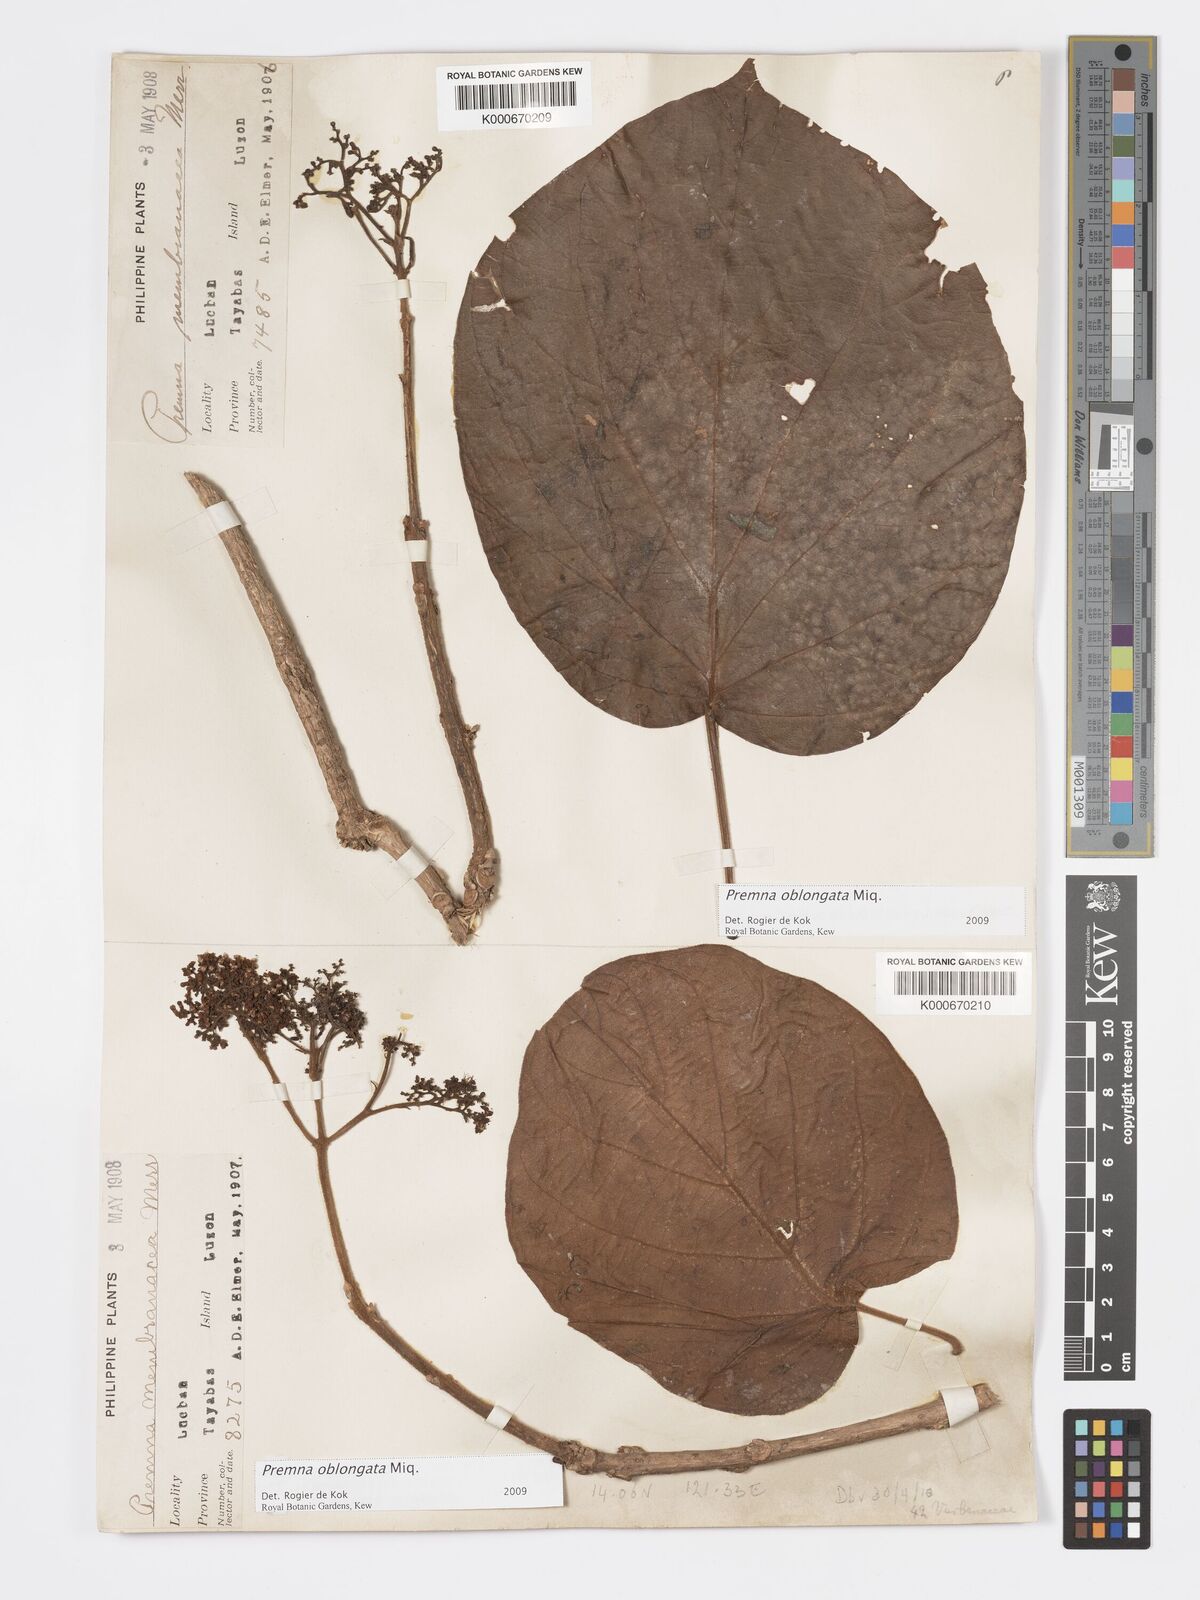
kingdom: Plantae
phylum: Tracheophyta
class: Magnoliopsida
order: Lamiales
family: Lamiaceae
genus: Premna
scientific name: Premna oblongata
